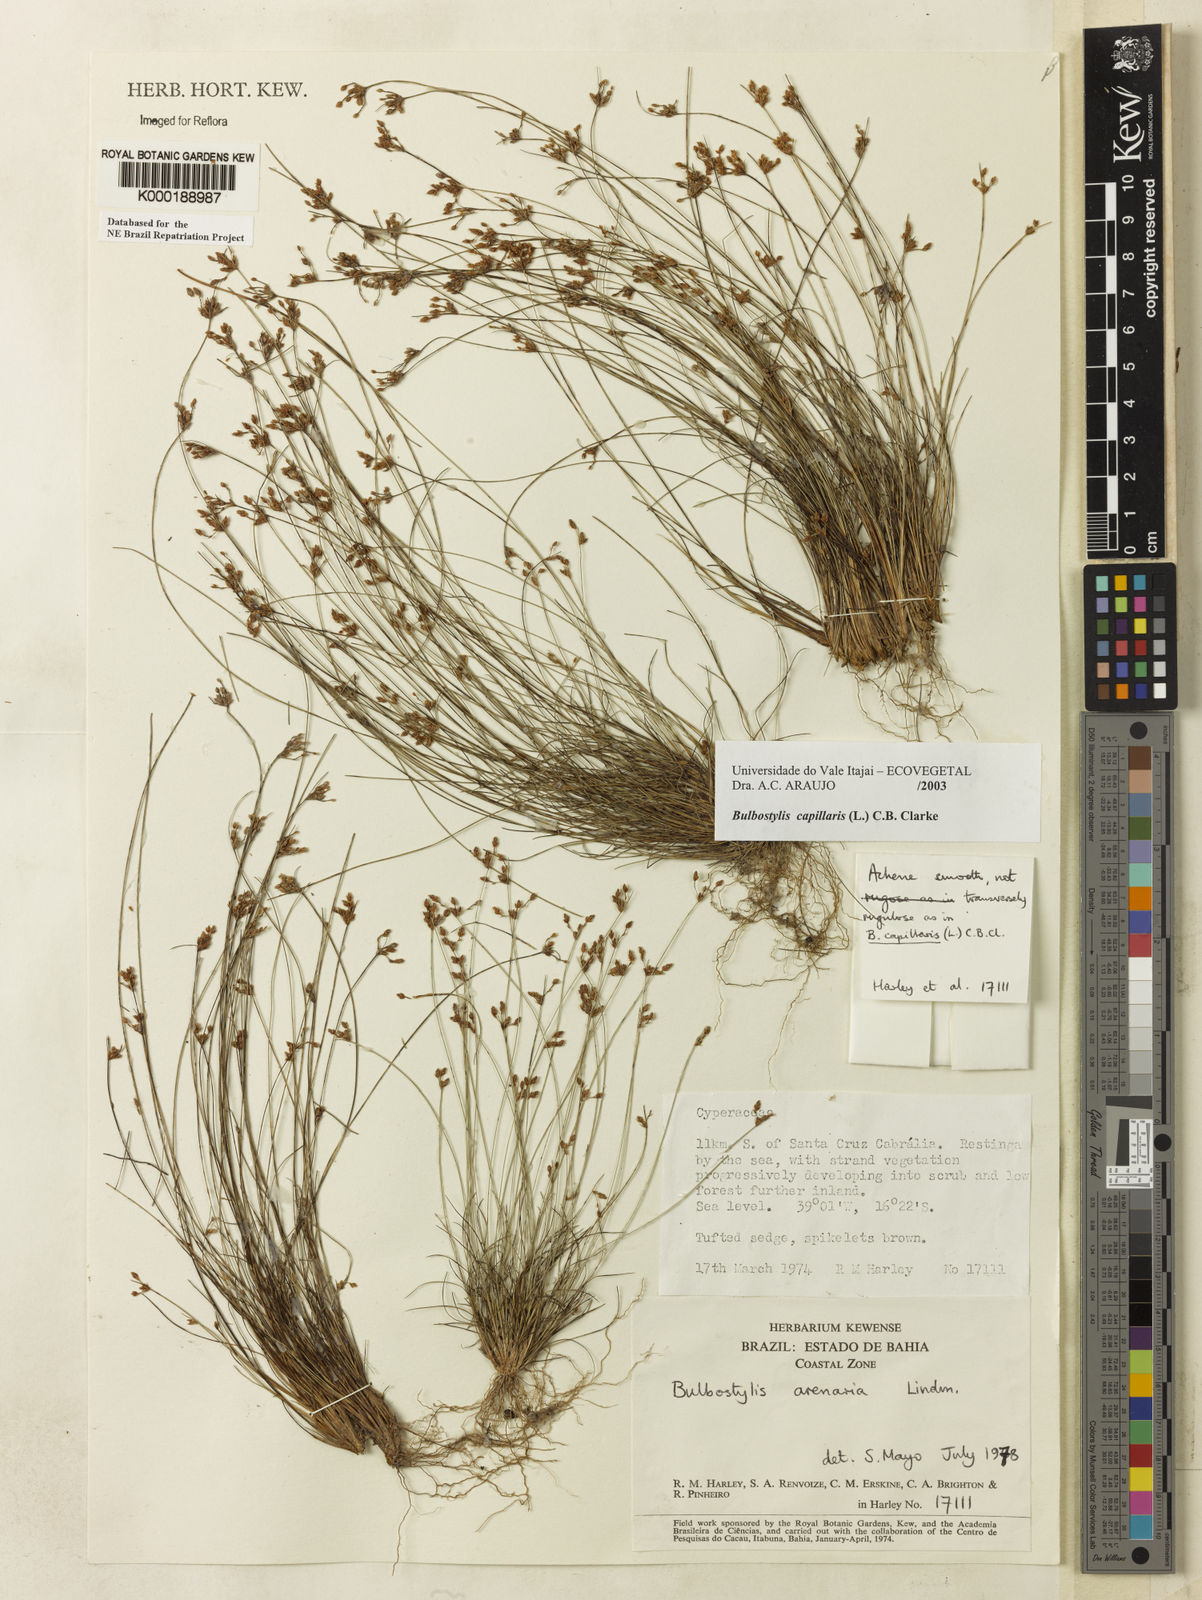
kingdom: Plantae
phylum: Tracheophyta
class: Liliopsida
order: Poales
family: Cyperaceae
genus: Bulbostylis
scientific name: Bulbostylis capillaris
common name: Densetuft hairsedge
